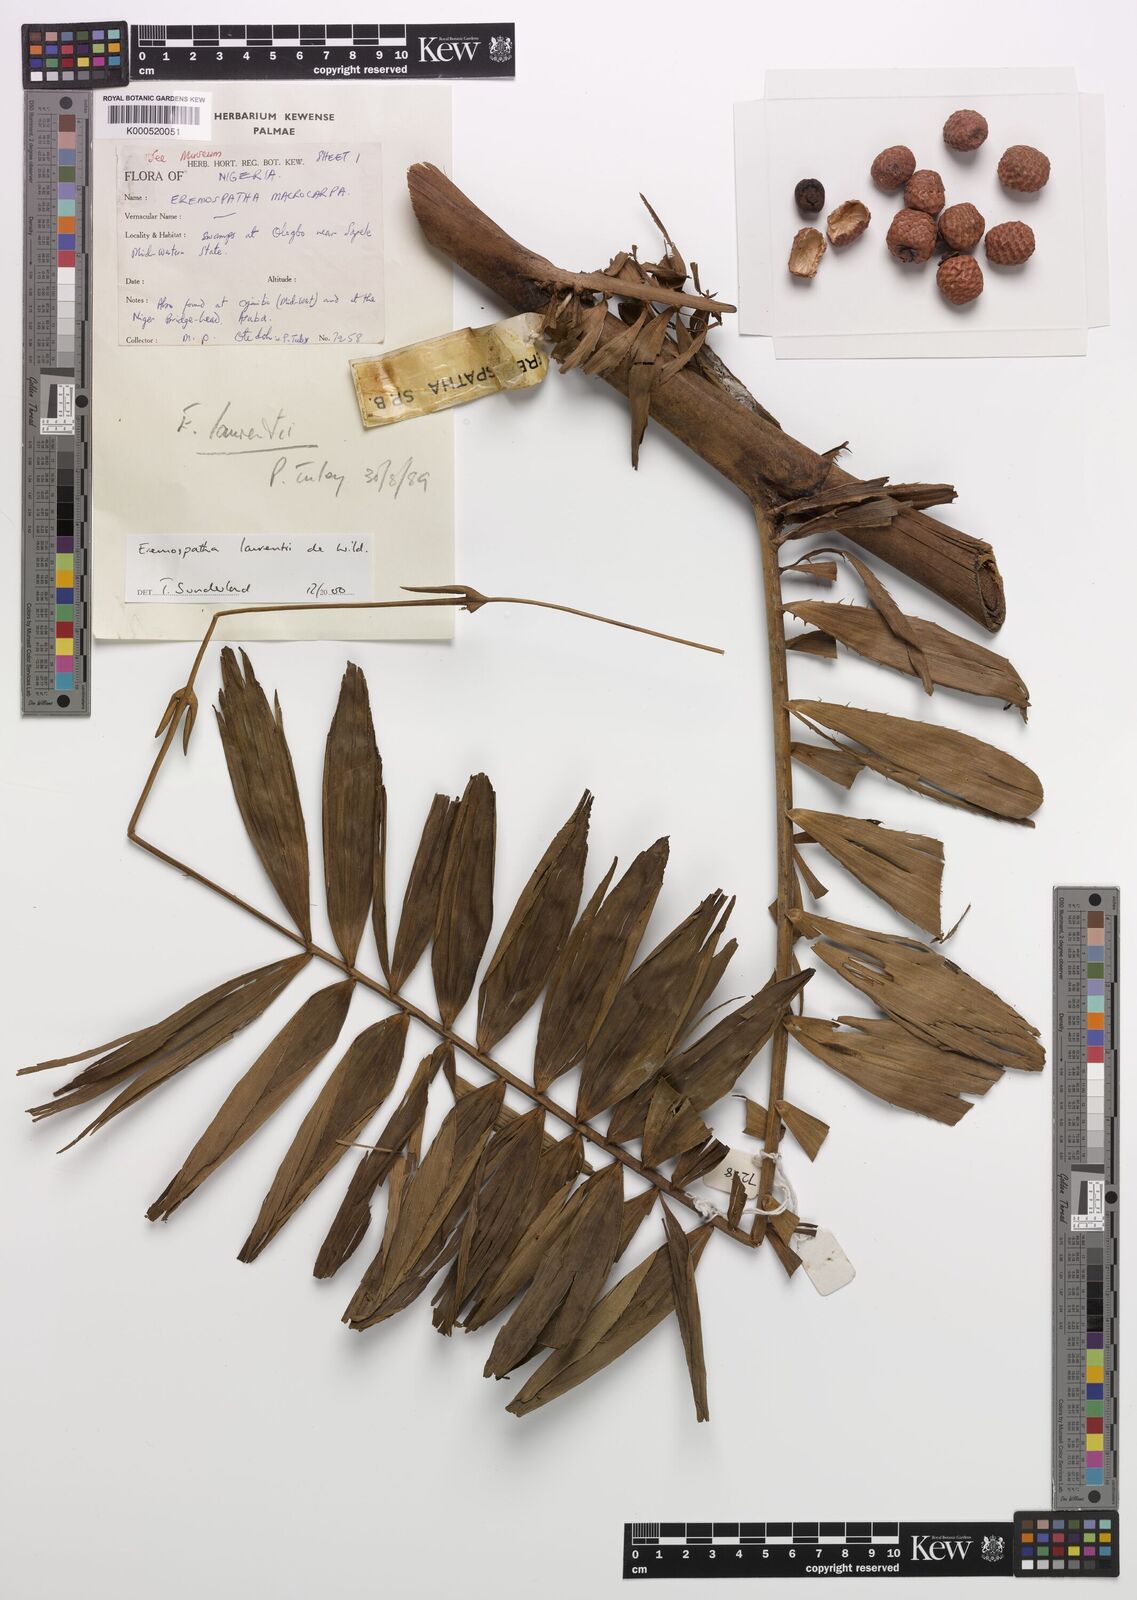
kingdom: Plantae
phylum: Tracheophyta
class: Liliopsida
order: Arecales
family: Arecaceae
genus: Eremospatha
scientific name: Eremospatha laurentii
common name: Rattan palm
